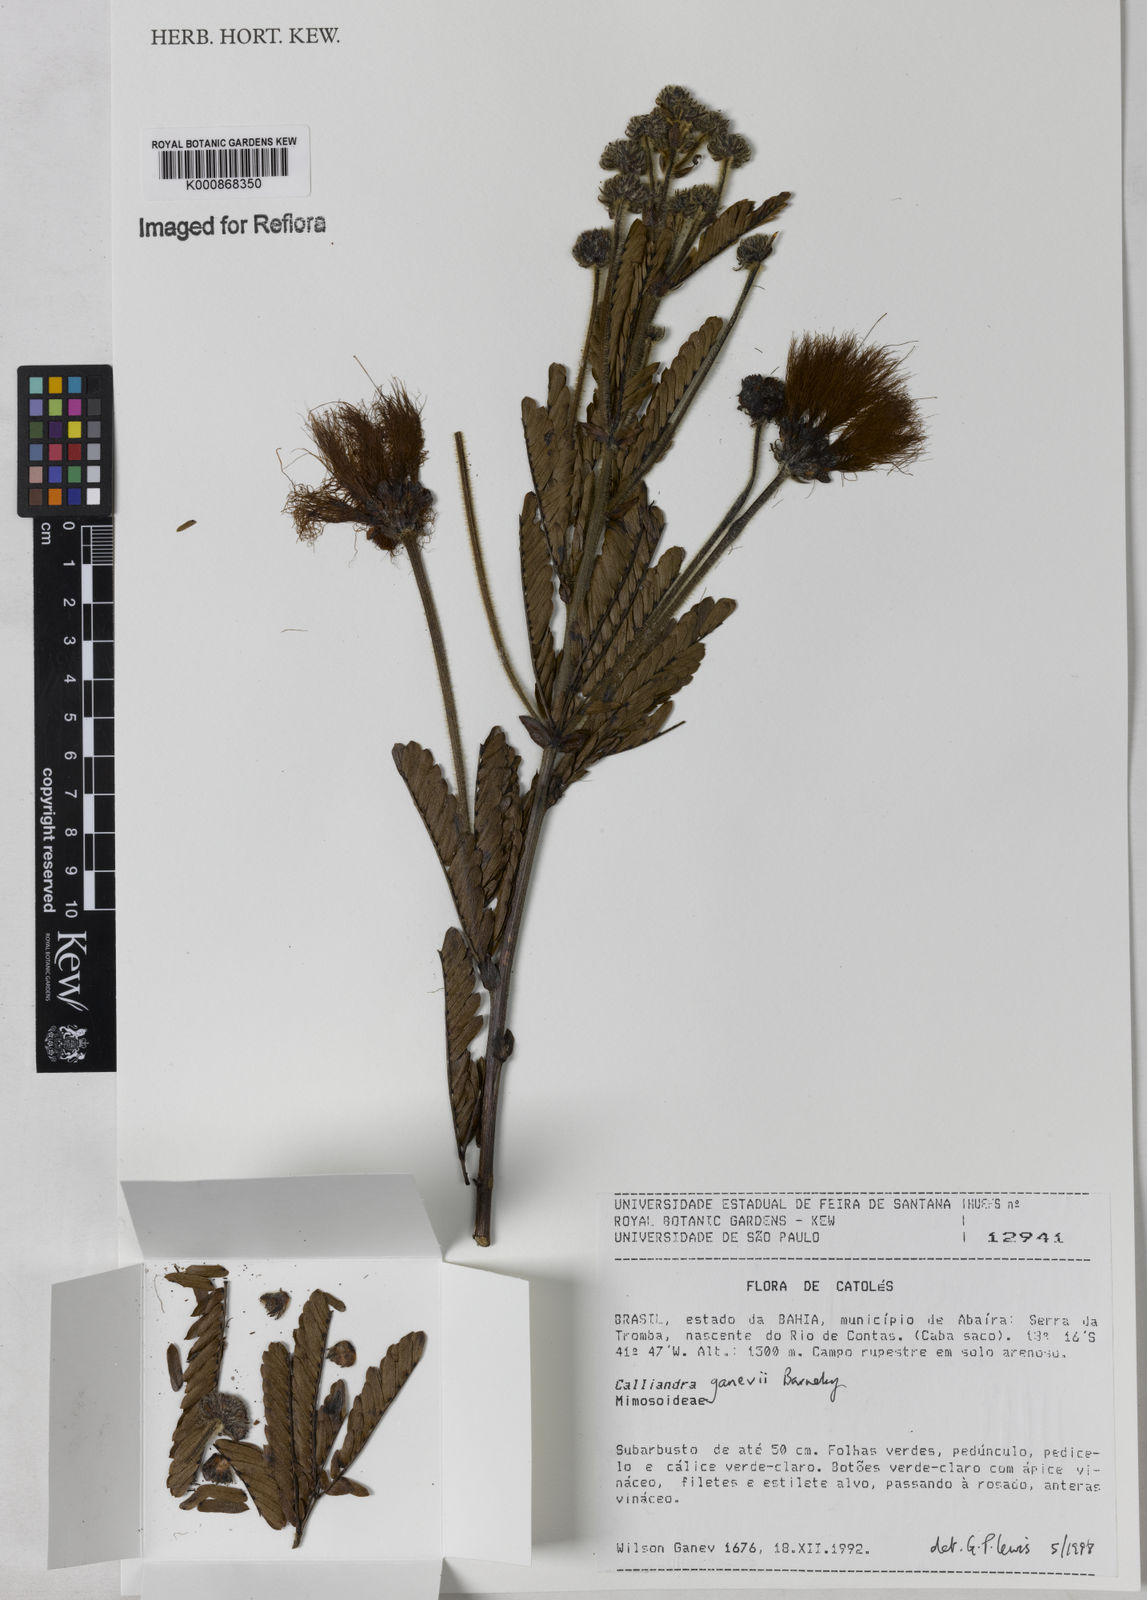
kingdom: Plantae
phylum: Tracheophyta
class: Magnoliopsida
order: Fabales
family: Fabaceae
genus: Calliandra
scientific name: Calliandra ganevii
